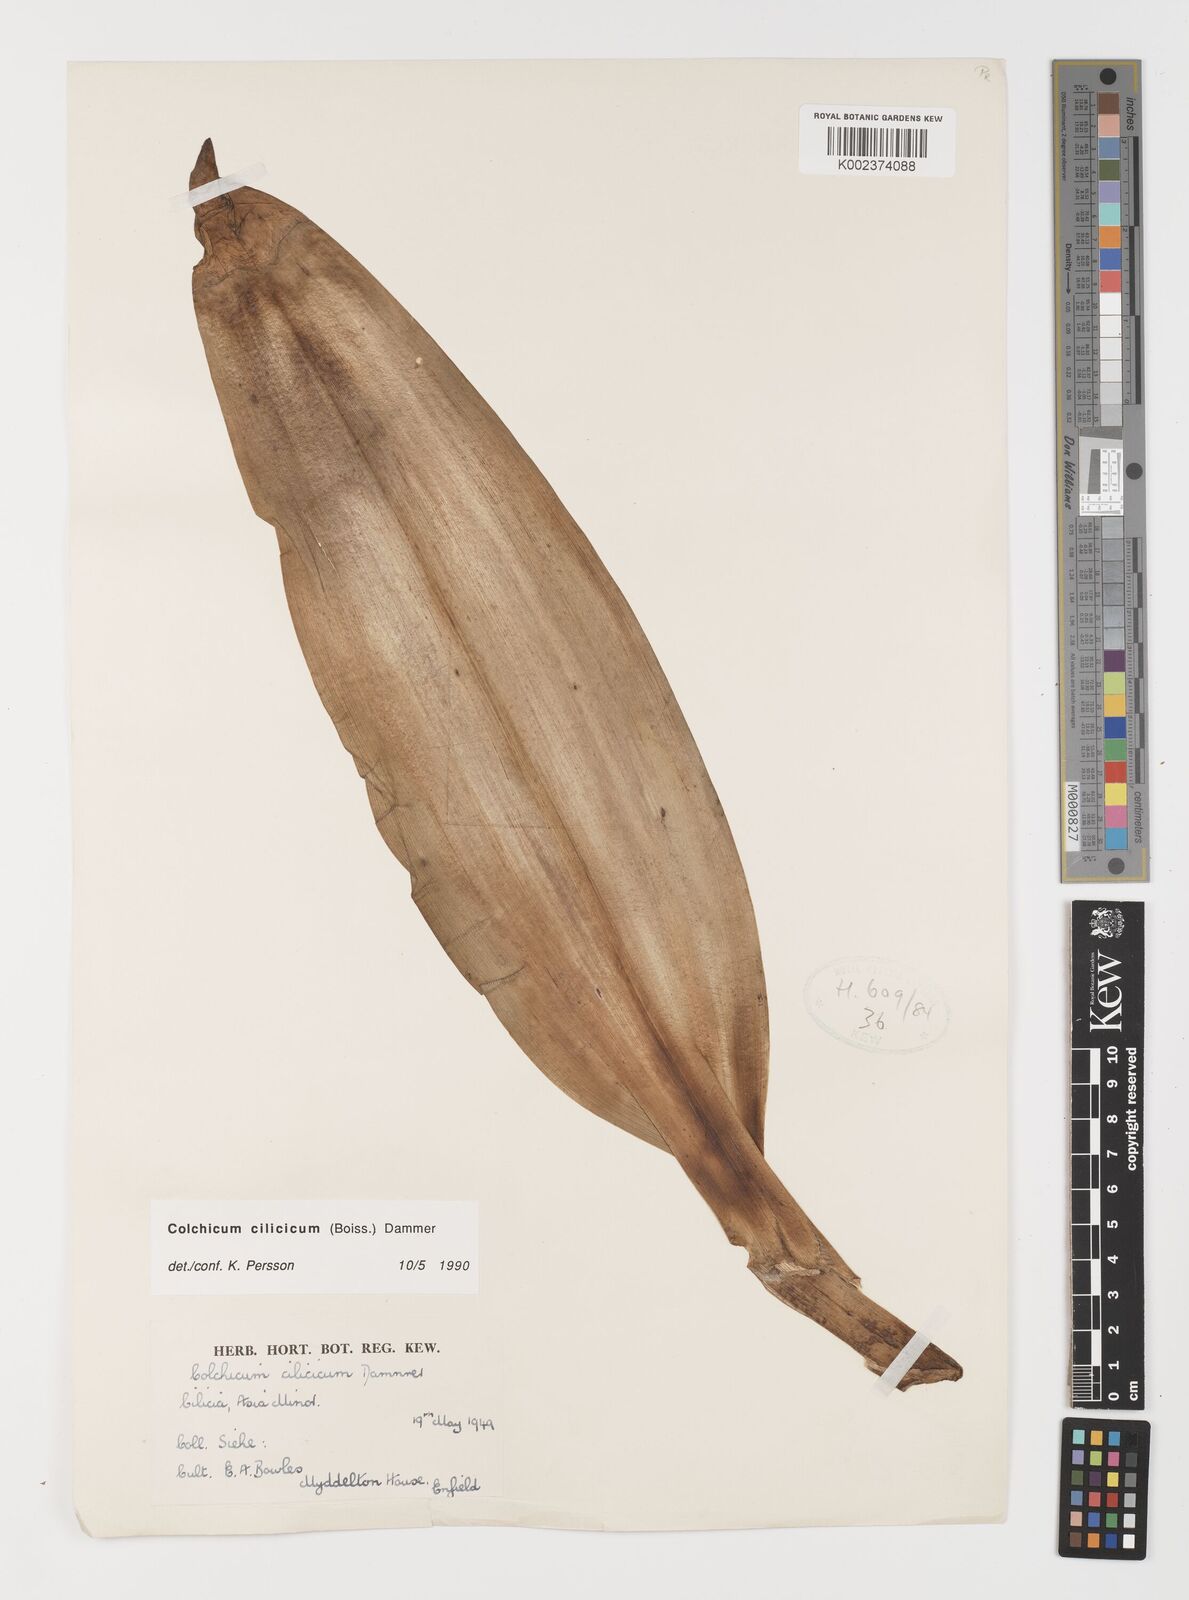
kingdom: Plantae
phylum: Tracheophyta
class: Liliopsida
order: Liliales
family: Colchicaceae
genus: Colchicum
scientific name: Colchicum cilicicum
